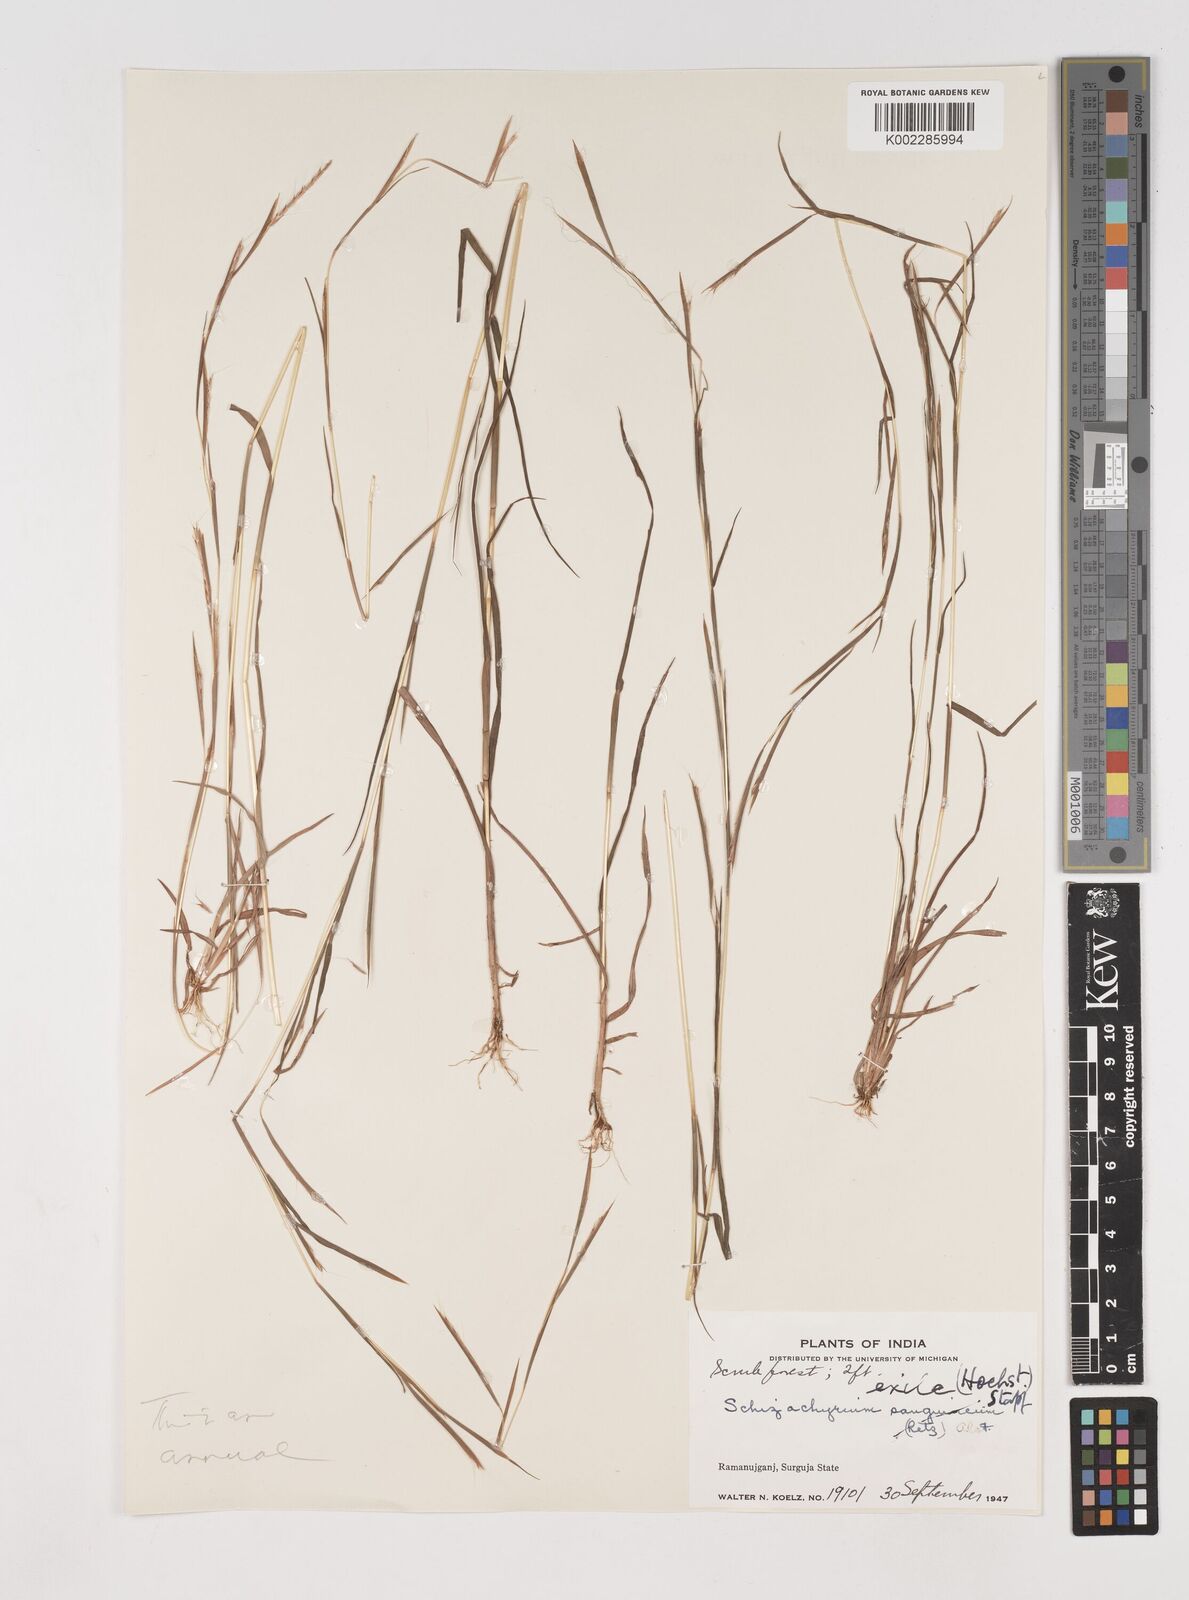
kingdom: Plantae
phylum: Tracheophyta
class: Liliopsida
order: Poales
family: Poaceae
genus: Schizachyrium
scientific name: Schizachyrium exile
